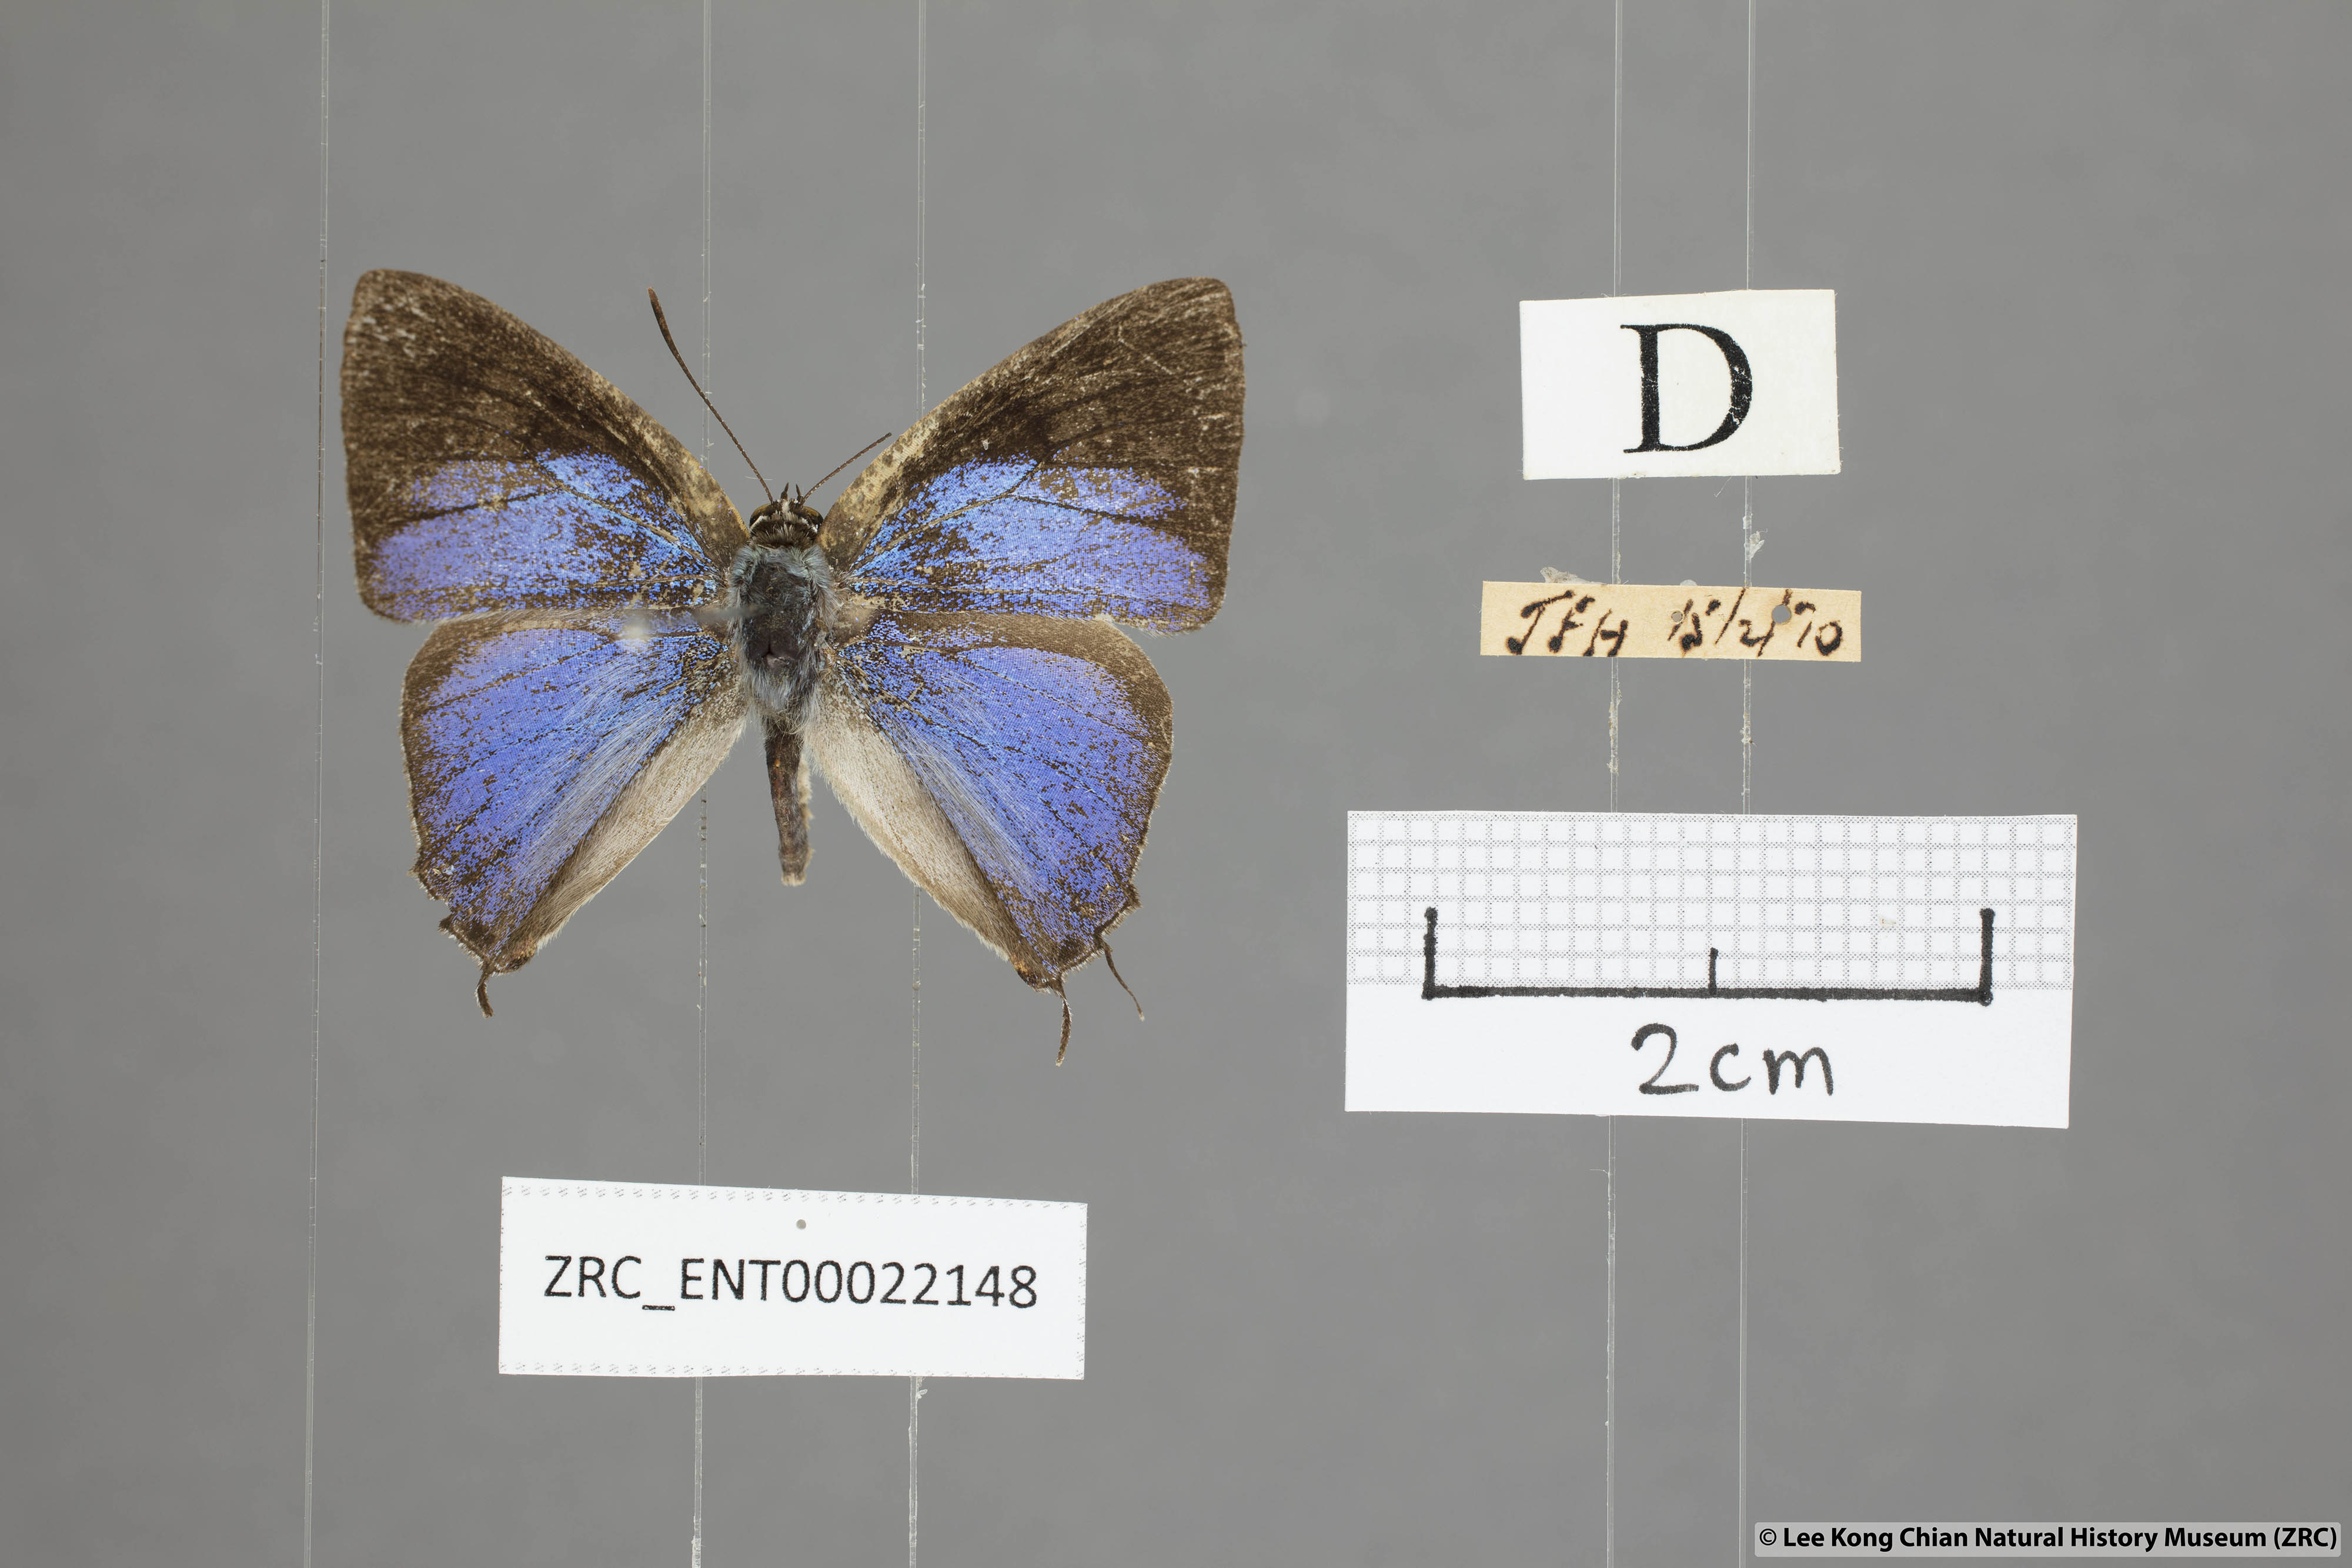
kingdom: Animalia
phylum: Arthropoda
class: Insecta
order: Lepidoptera
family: Lycaenidae
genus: Tajuria
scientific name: Tajuria albiplaga
